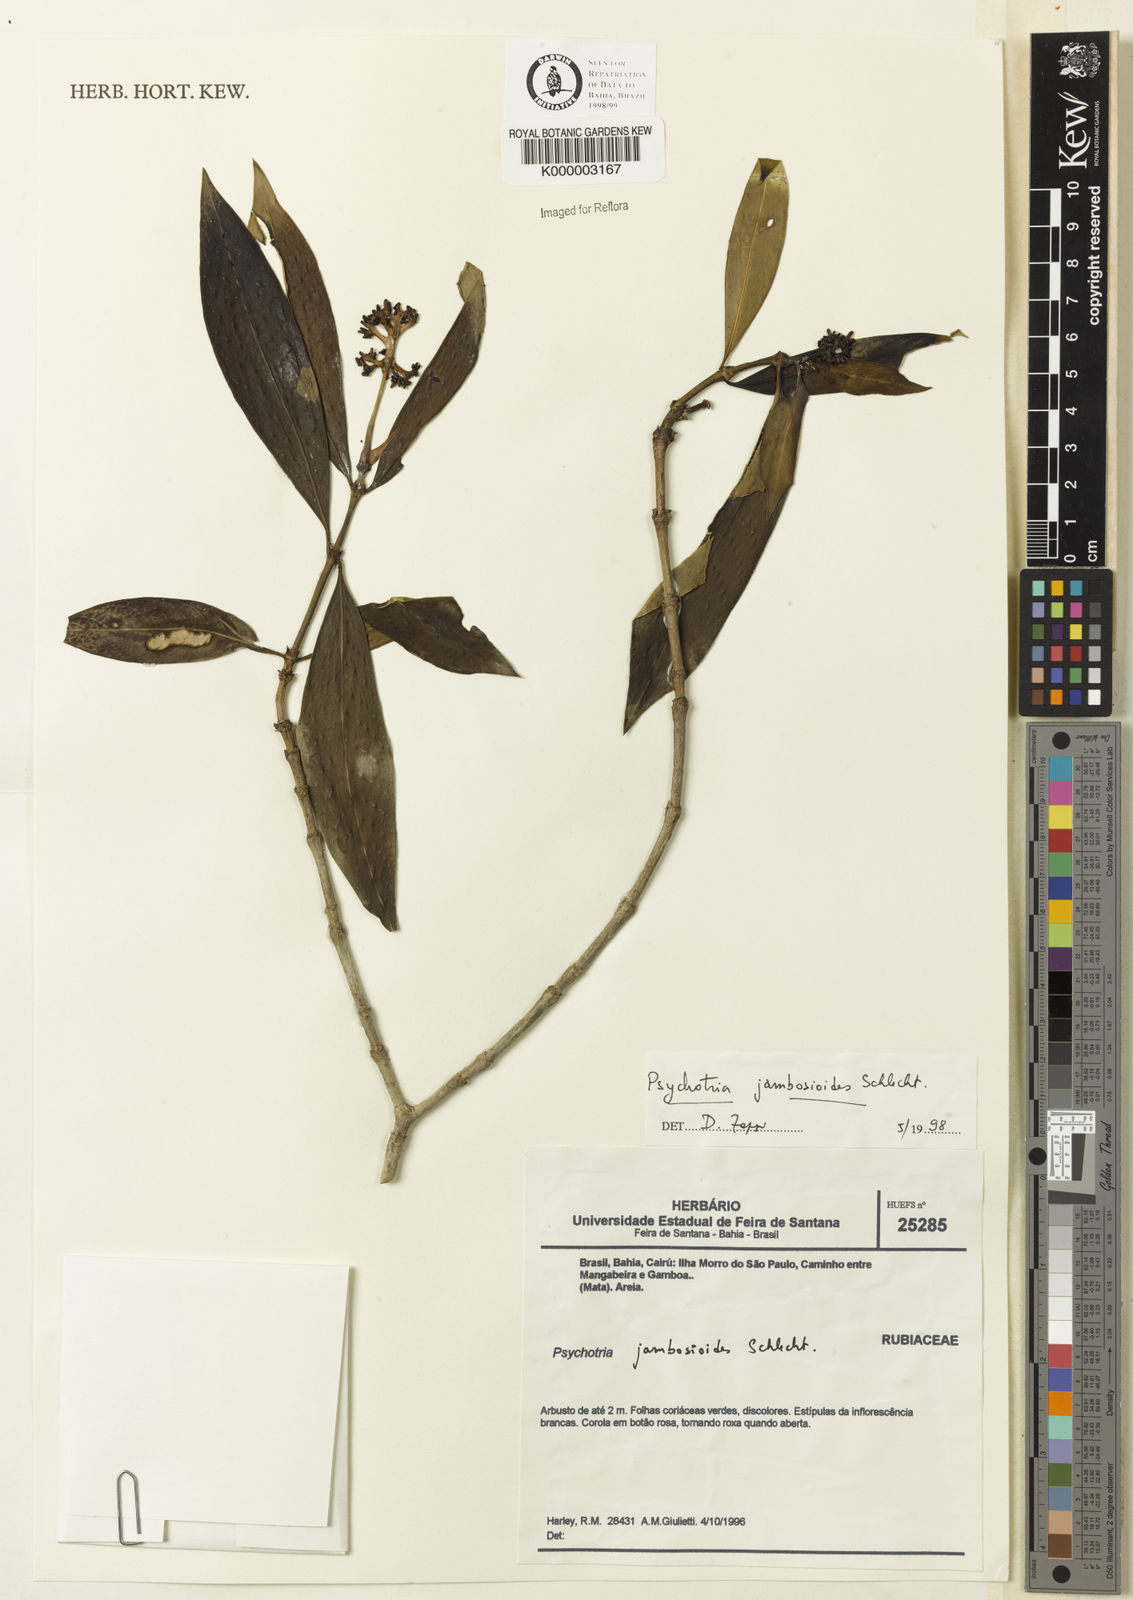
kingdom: Plantae
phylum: Tracheophyta
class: Magnoliopsida
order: Gentianales
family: Rubiaceae
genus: Palicourea
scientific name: Palicourea jambosioides
